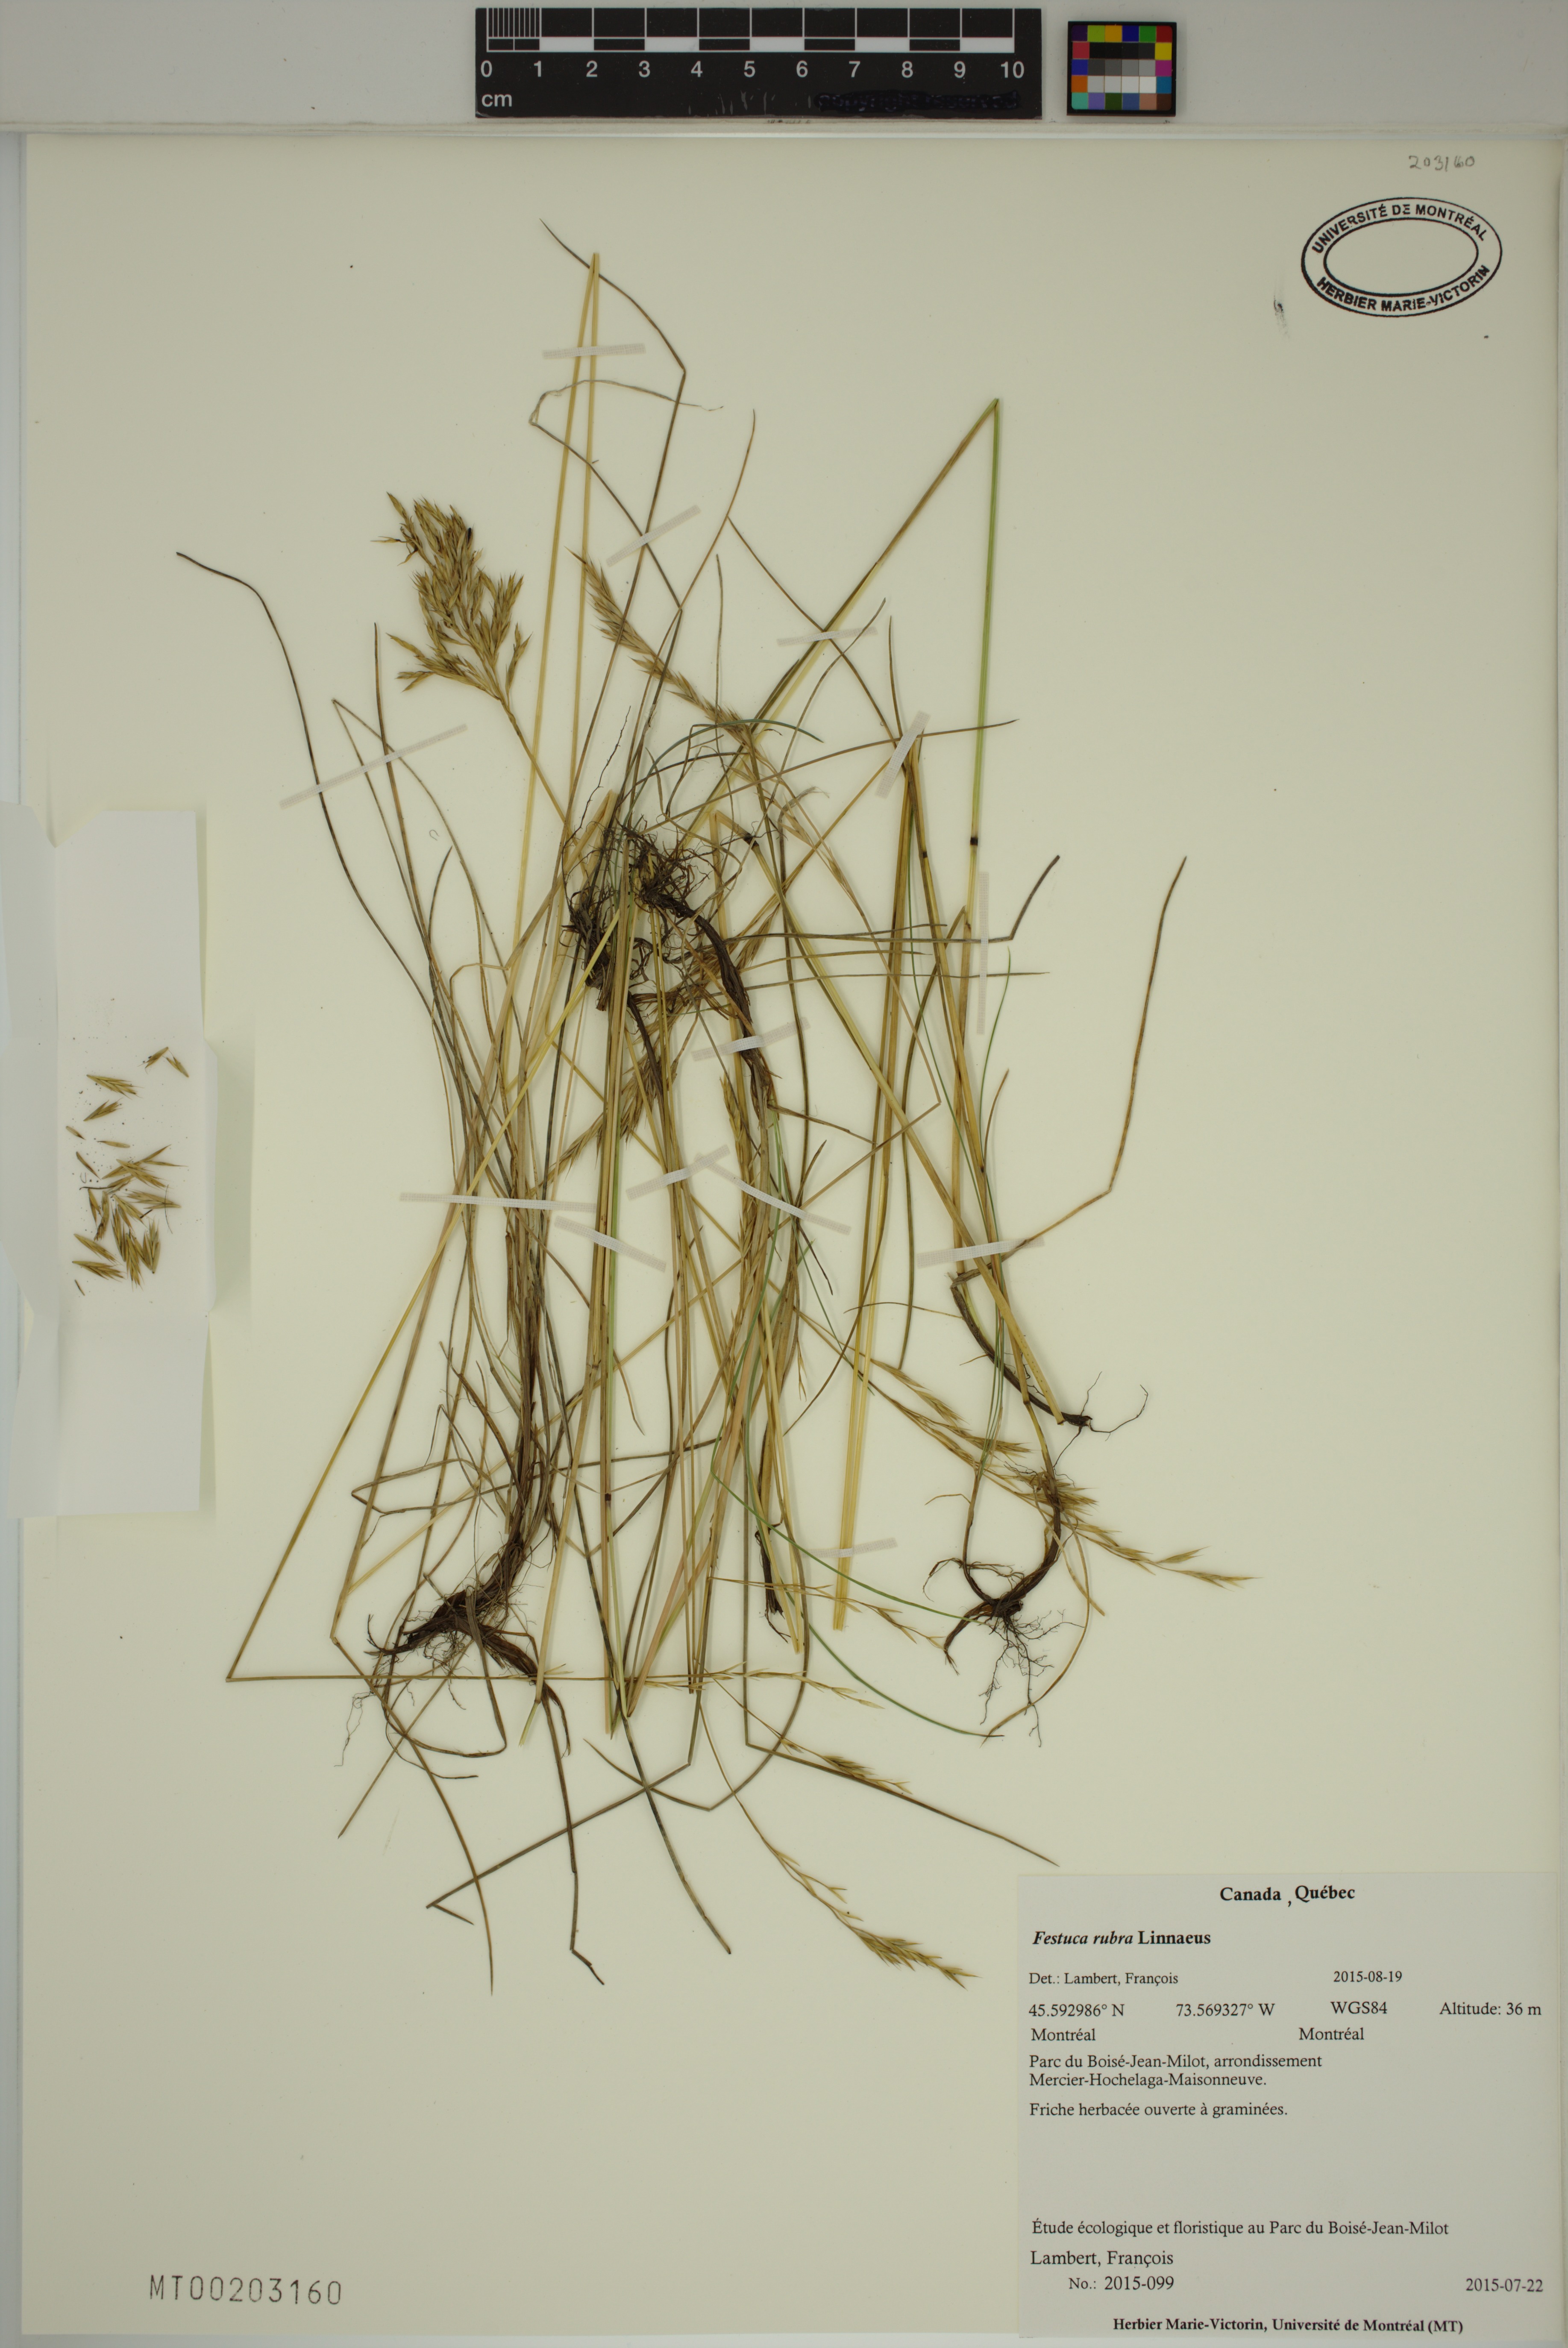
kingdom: Plantae
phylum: Tracheophyta
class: Liliopsida
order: Poales
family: Poaceae
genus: Festuca
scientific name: Festuca rubra
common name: Red fescue
